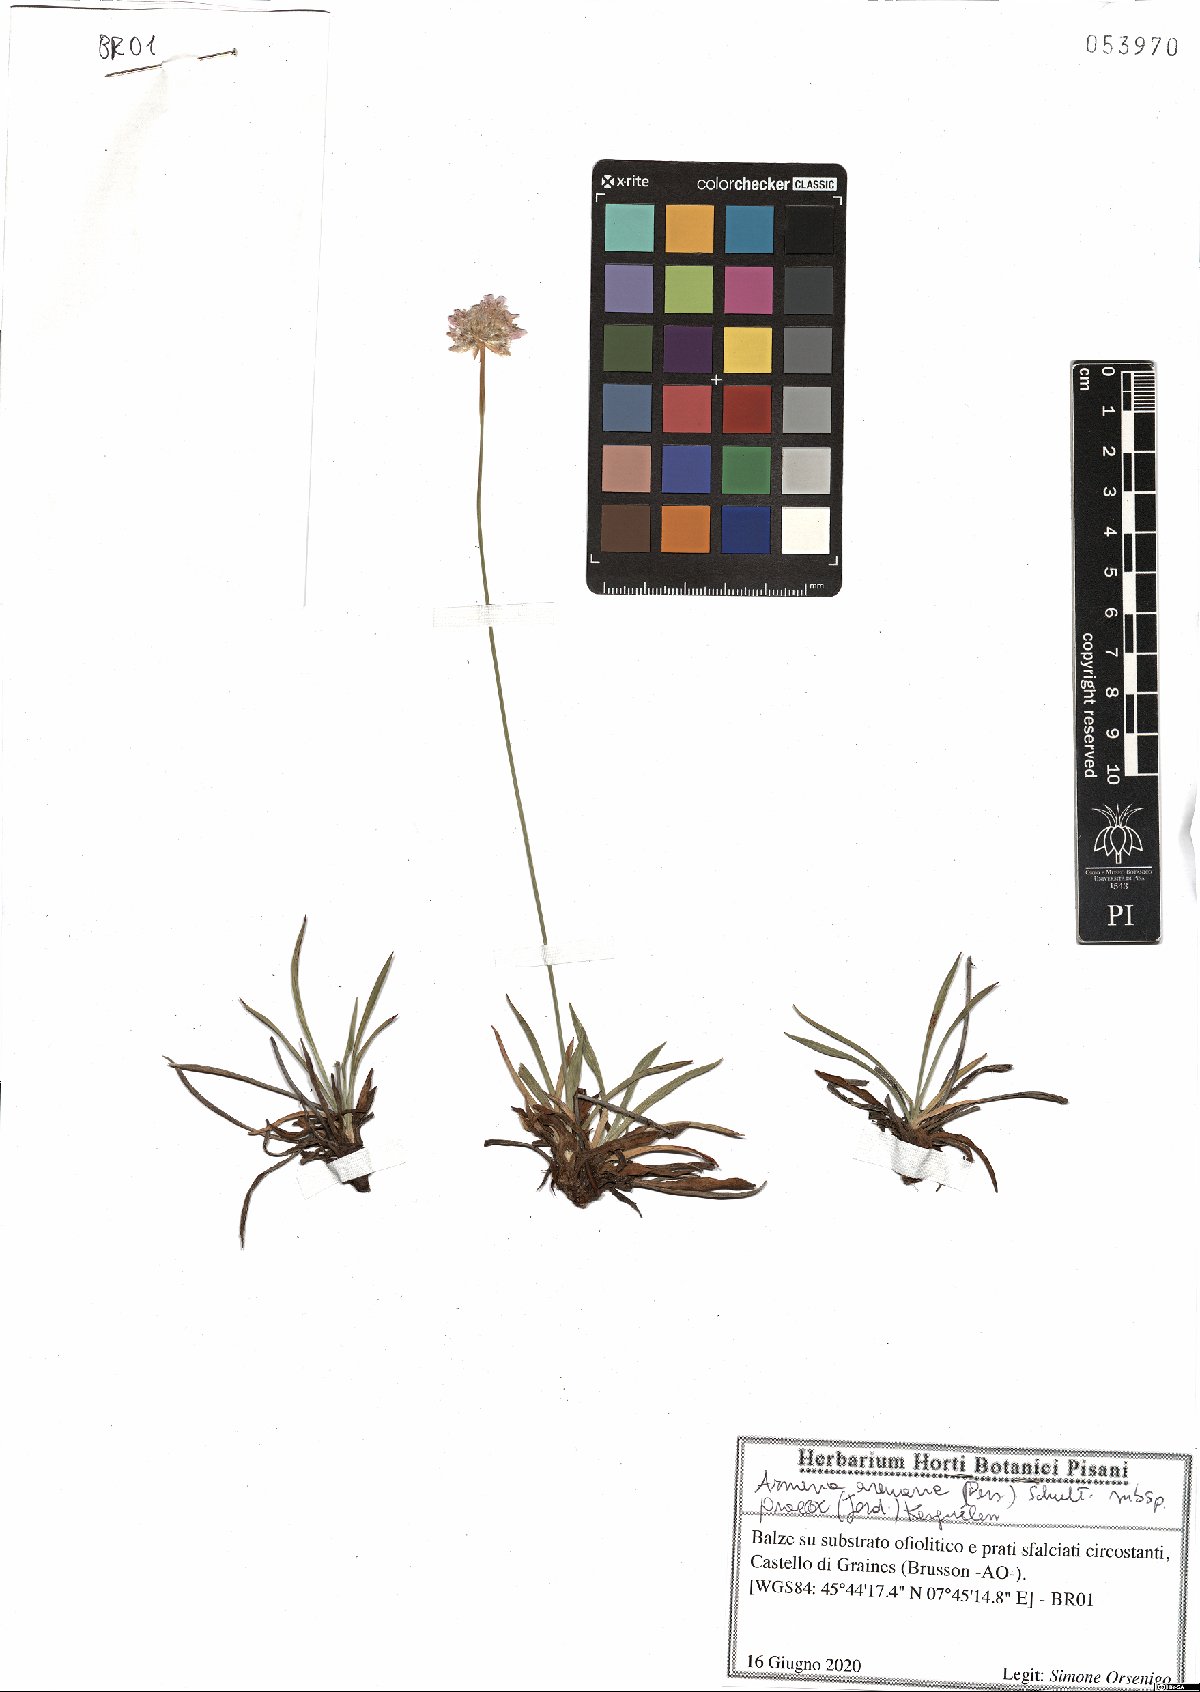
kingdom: Plantae
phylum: Tracheophyta
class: Magnoliopsida
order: Caryophyllales
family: Plumbaginaceae
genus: Armeria
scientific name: Armeria arenaria
